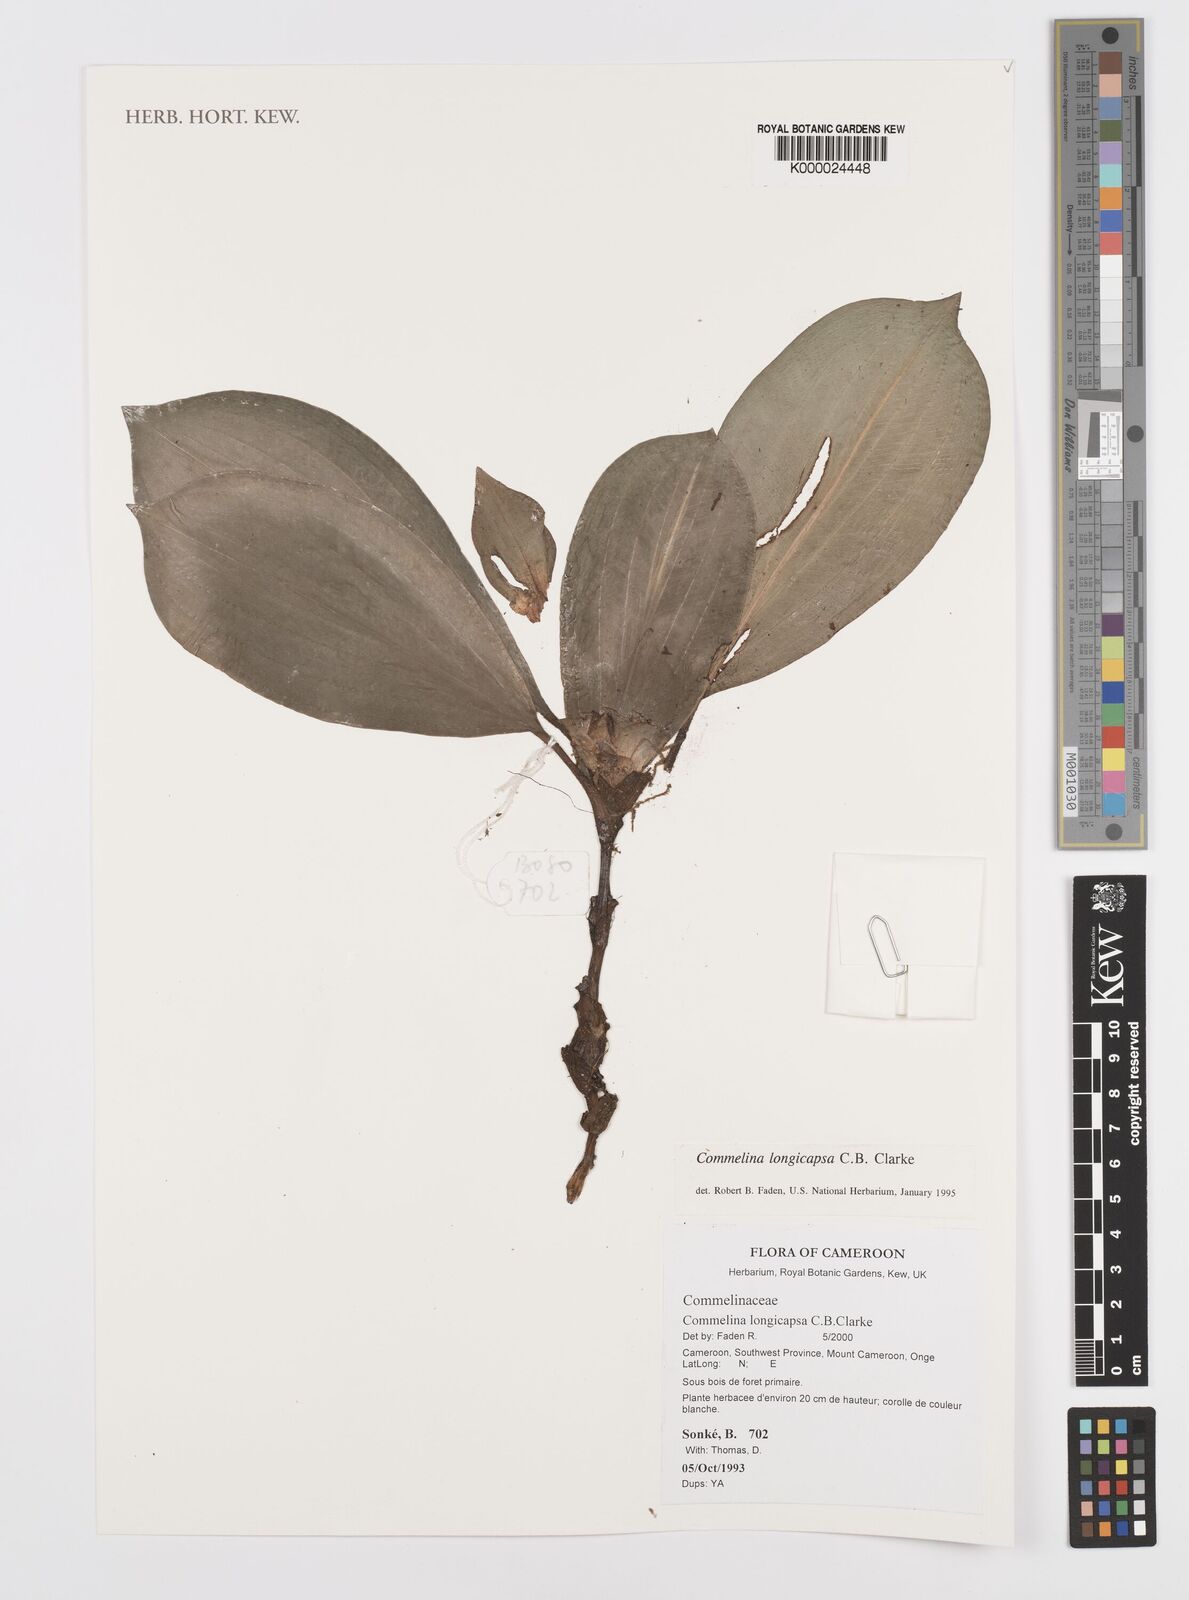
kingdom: Plantae
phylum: Tracheophyta
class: Liliopsida
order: Commelinales
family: Commelinaceae
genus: Commelina
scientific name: Commelina longicapsa
